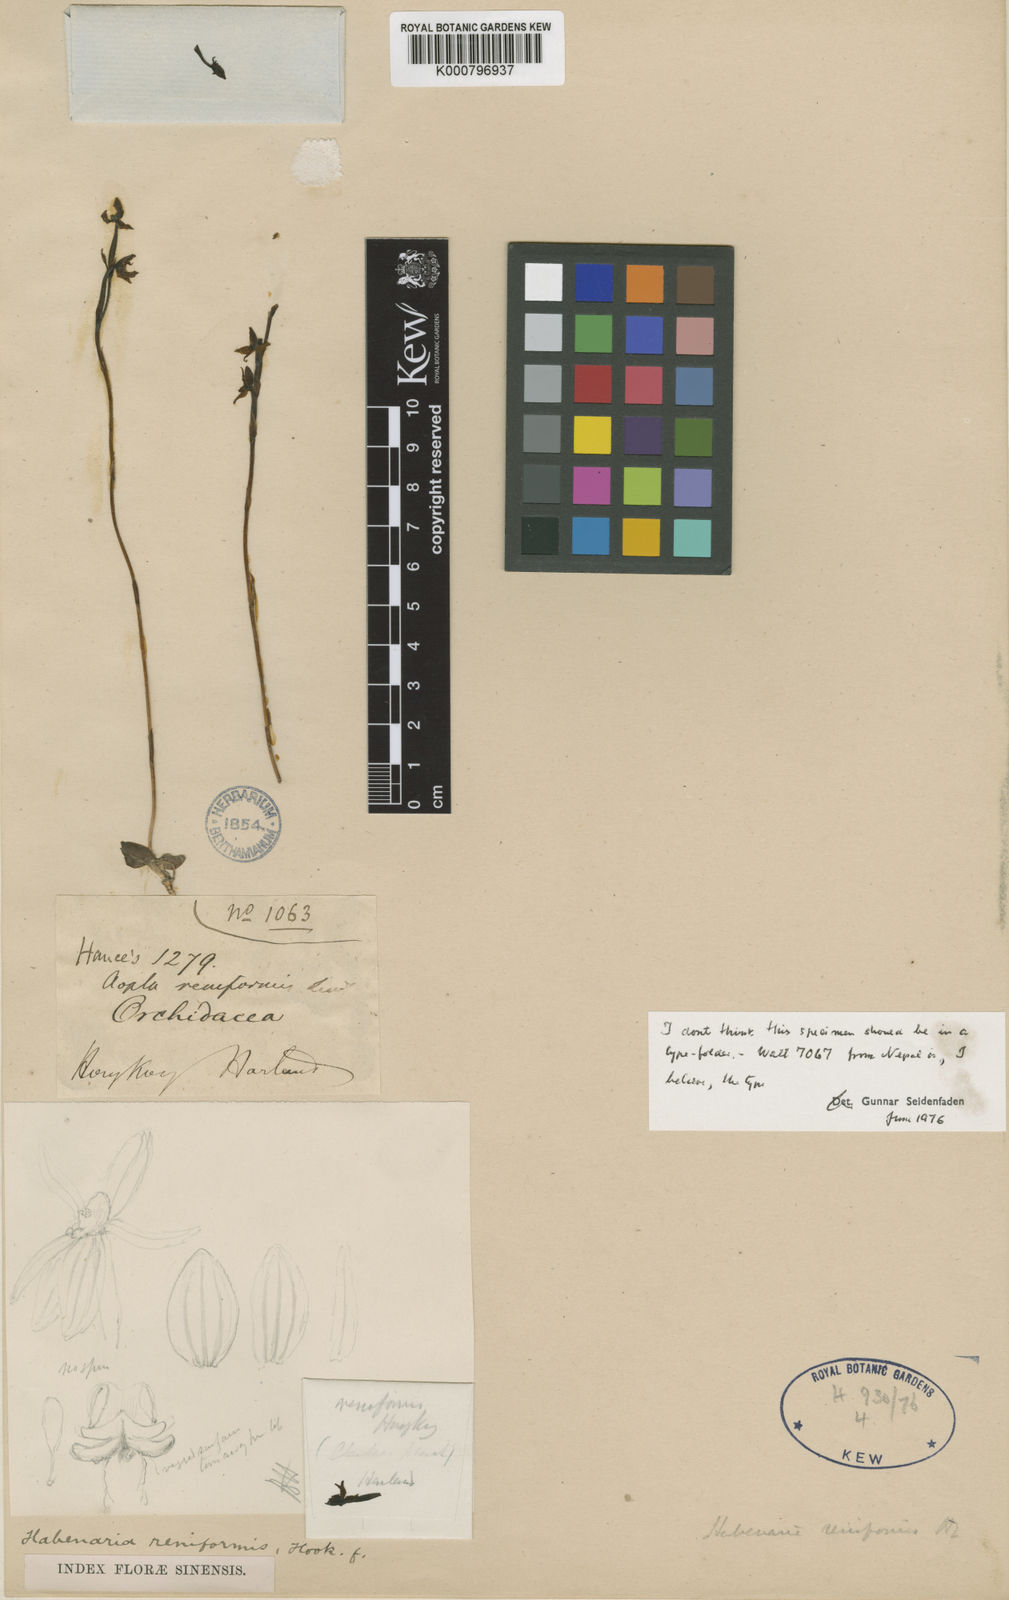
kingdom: Plantae
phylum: Tracheophyta
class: Liliopsida
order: Asparagales
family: Orchidaceae
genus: Habenaria
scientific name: Habenaria reniformis
